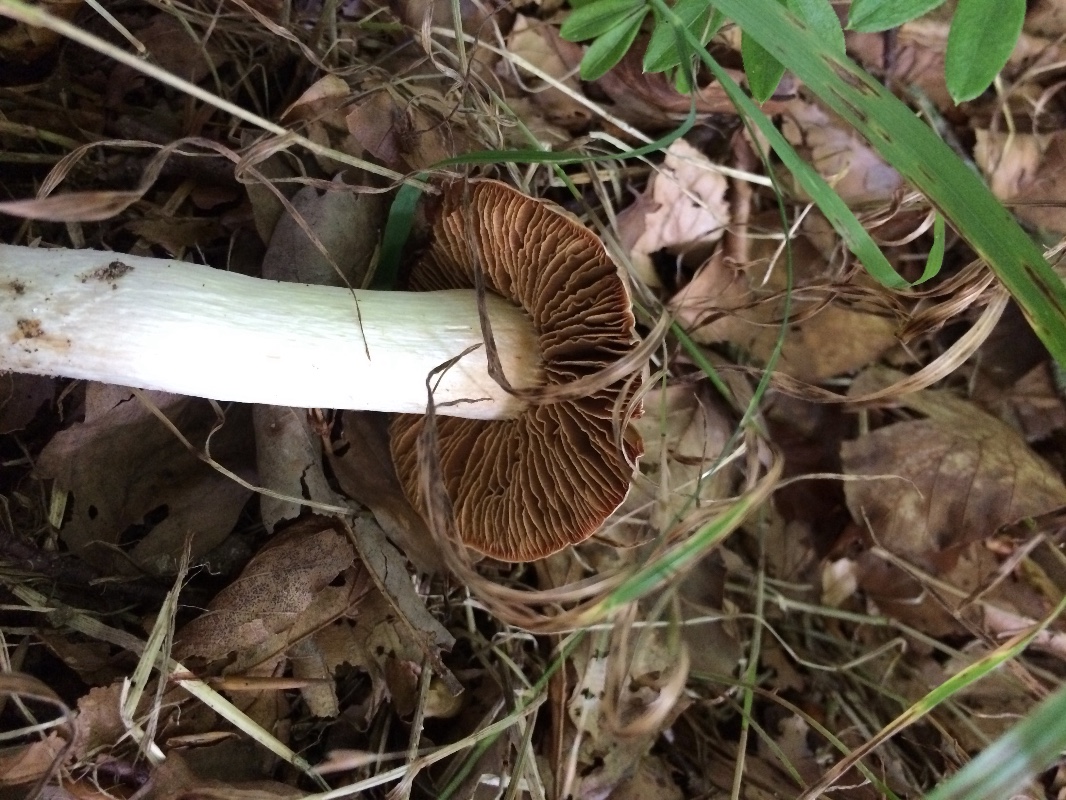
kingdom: Fungi
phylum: Basidiomycota
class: Agaricomycetes
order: Agaricales
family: Cortinariaceae
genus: Cortinarius
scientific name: Cortinarius
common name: jod-slørhat
